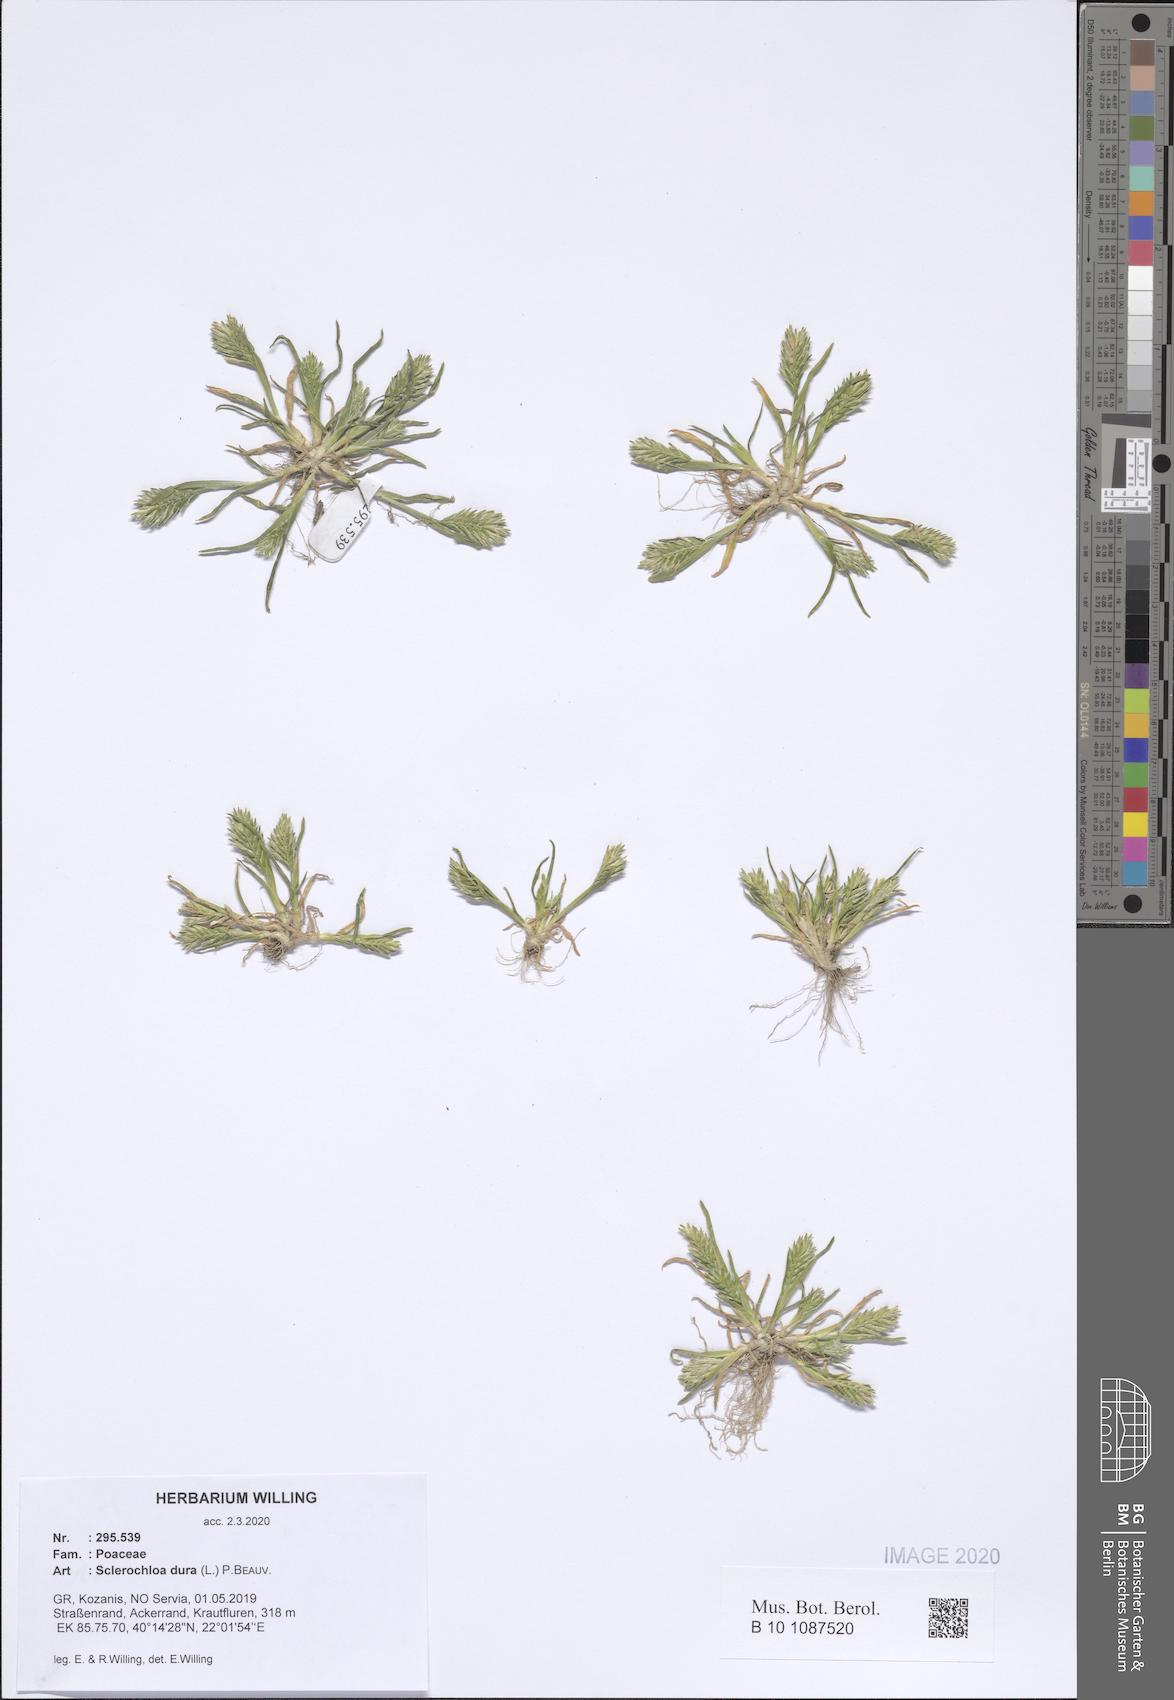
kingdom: Plantae
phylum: Tracheophyta
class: Liliopsida
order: Poales
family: Poaceae
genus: Sclerochloa
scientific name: Sclerochloa dura
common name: Common hardgrass
